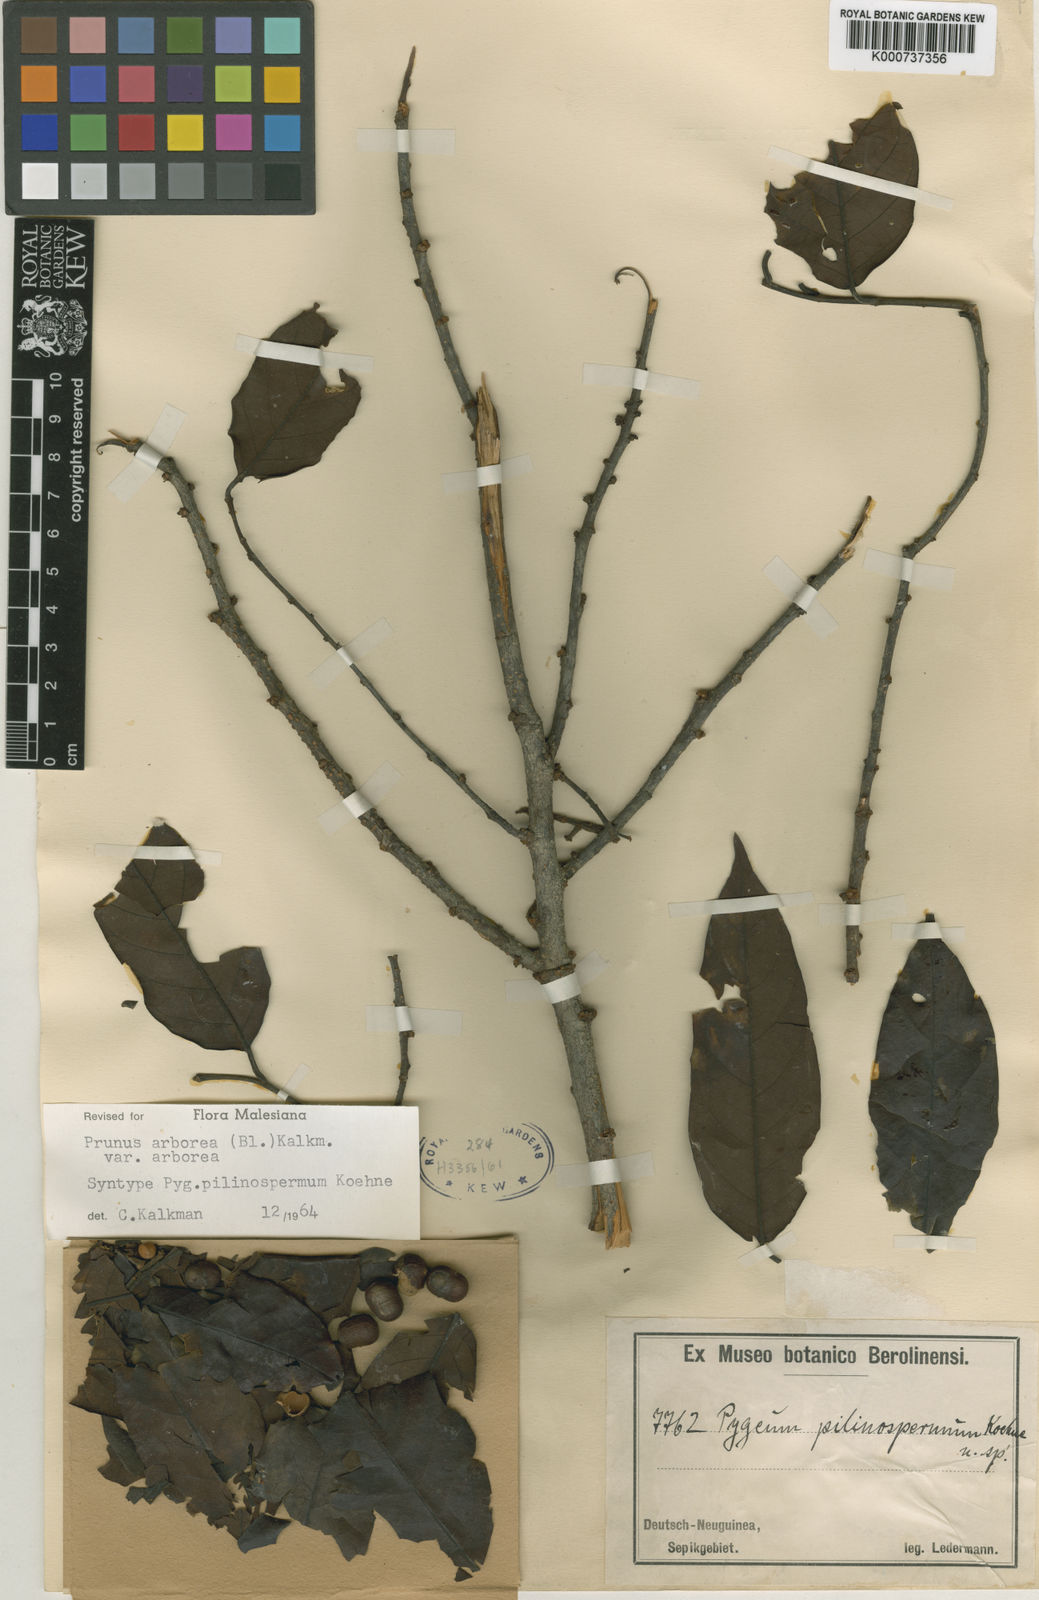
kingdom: Plantae
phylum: Tracheophyta
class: Magnoliopsida
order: Rosales
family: Rosaceae
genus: Prunus
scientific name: Prunus arborea
